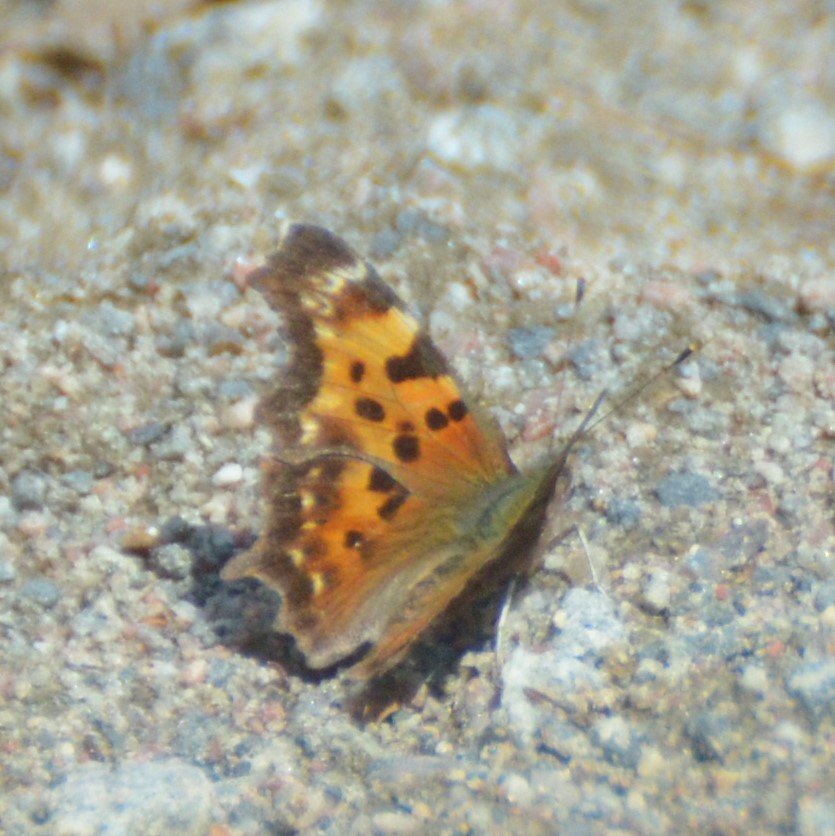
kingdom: Animalia
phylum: Arthropoda
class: Insecta
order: Lepidoptera
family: Nymphalidae
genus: Polygonia
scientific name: Polygonia faunus
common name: Green Comma
